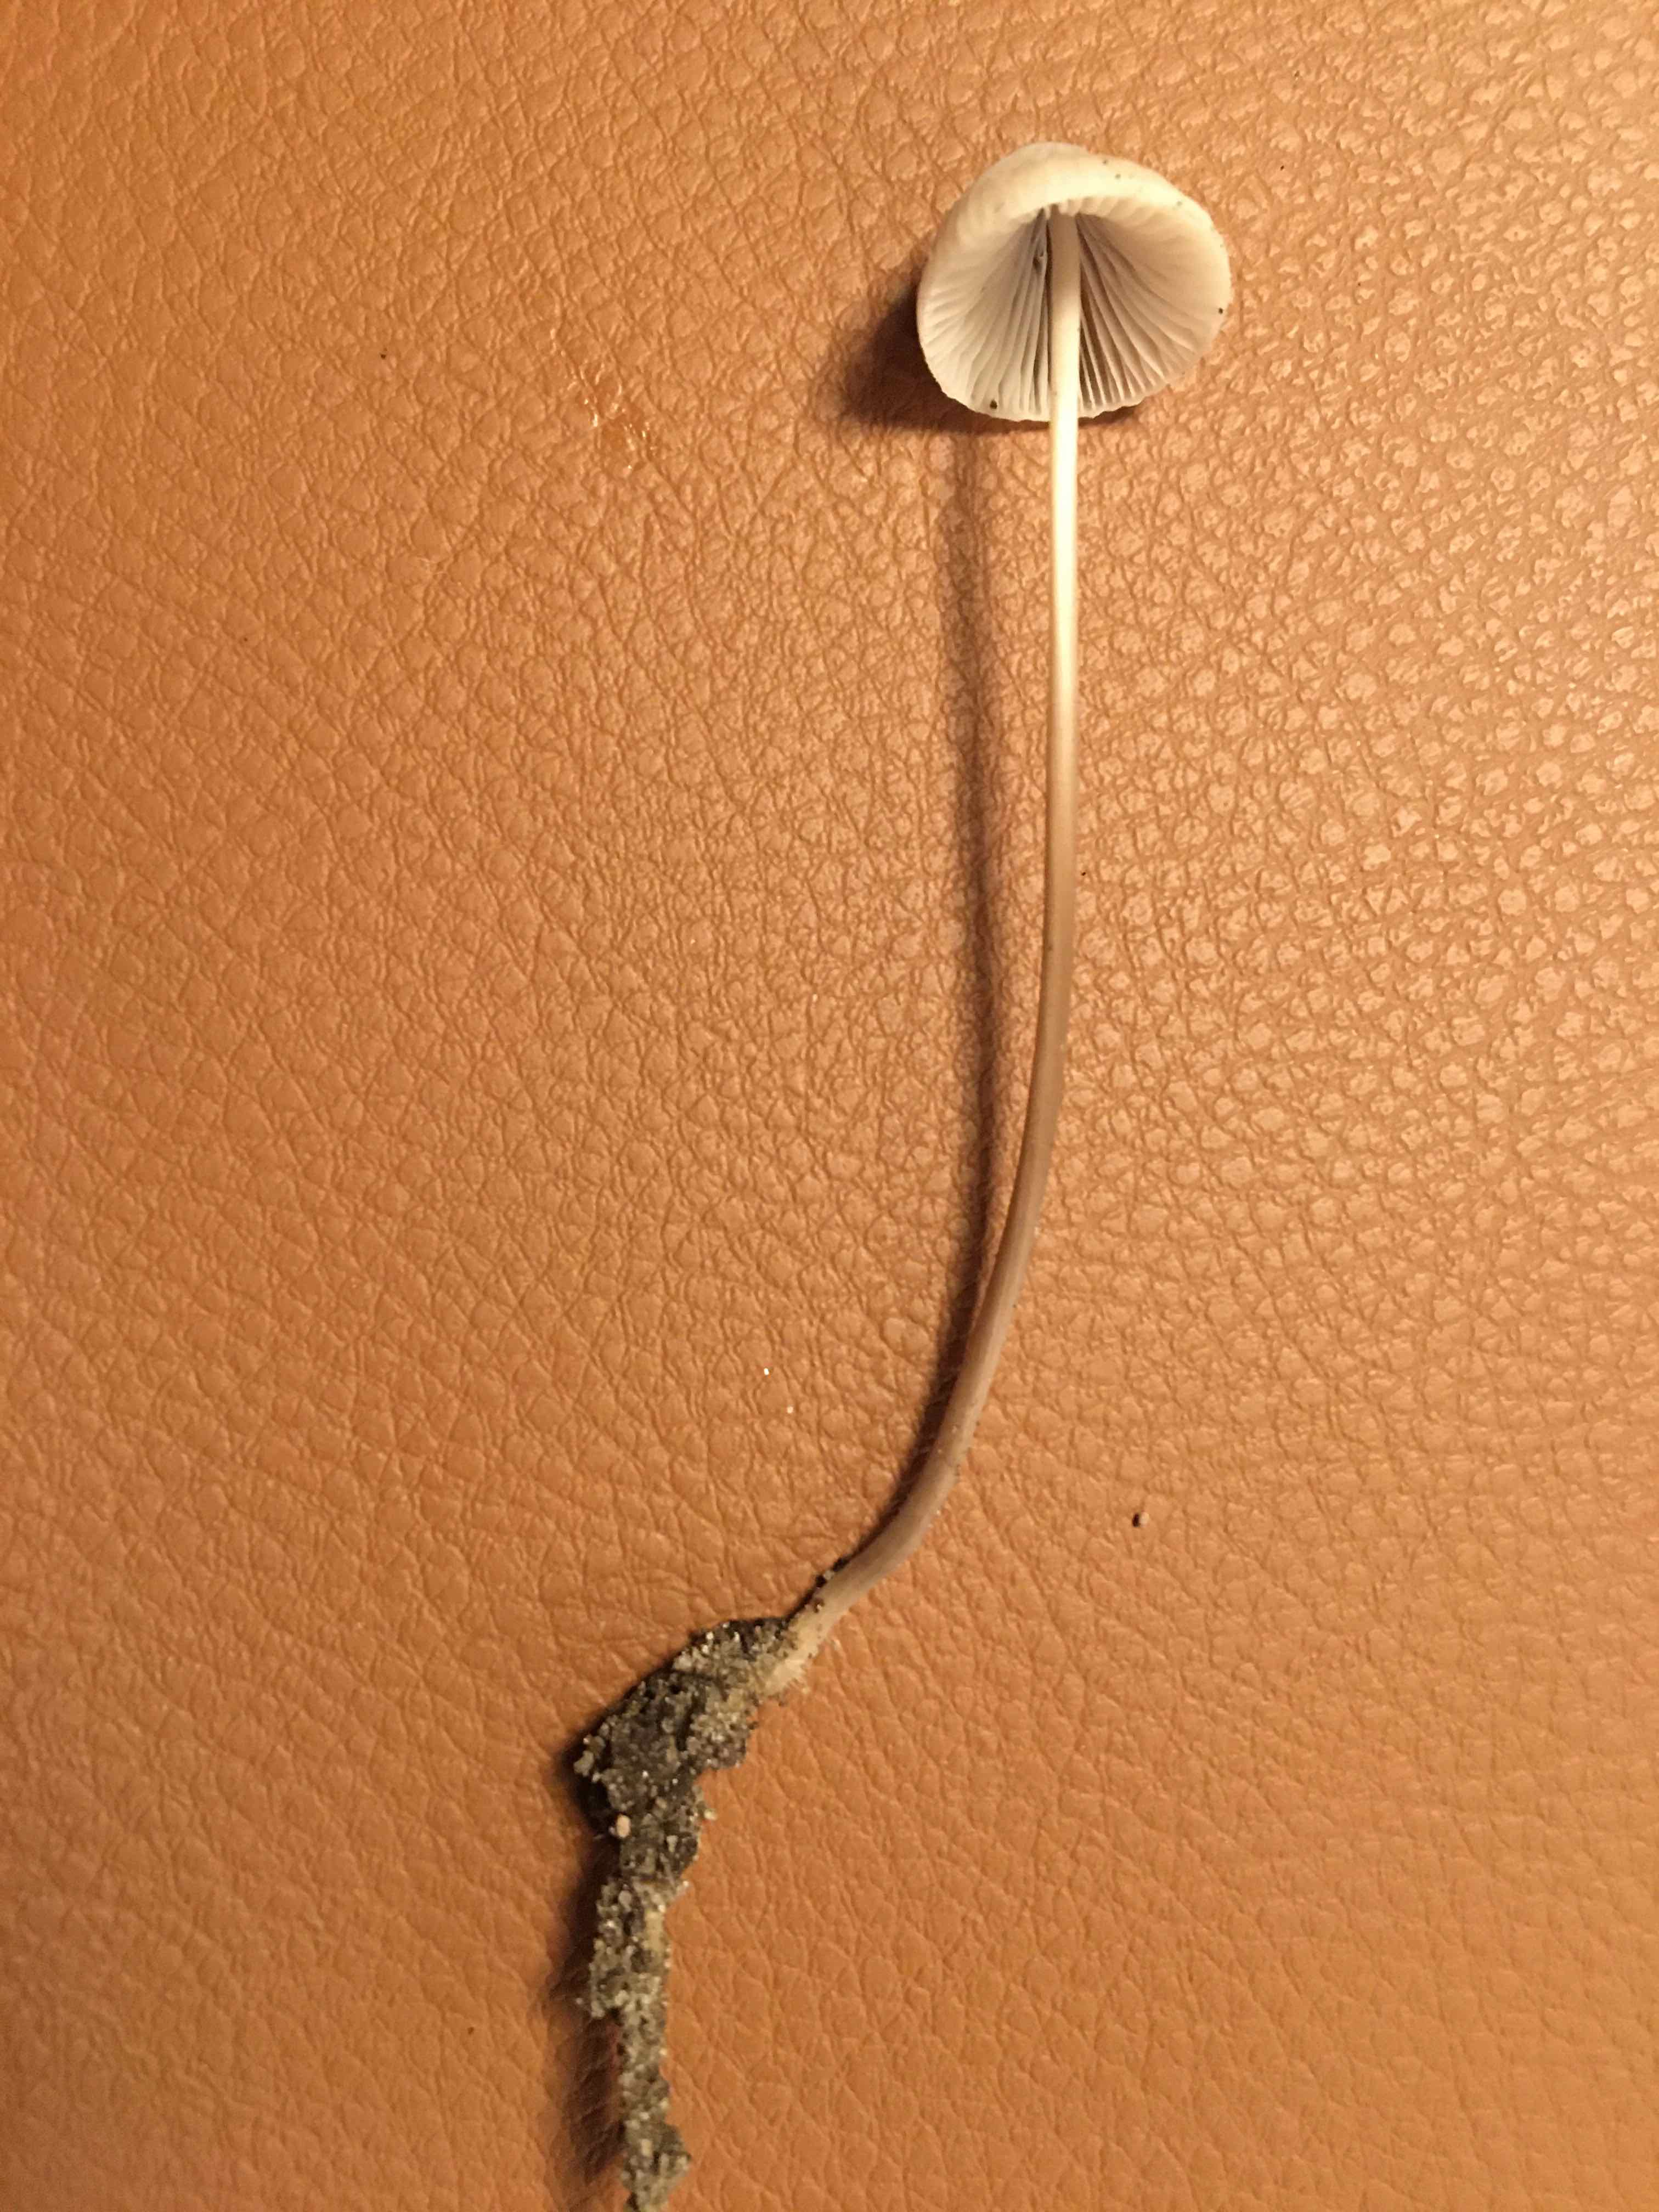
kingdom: Fungi
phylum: Basidiomycota
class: Agaricomycetes
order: Agaricales
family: Mycenaceae
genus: Mycena
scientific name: Mycena filopes
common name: jod-huesvamp
